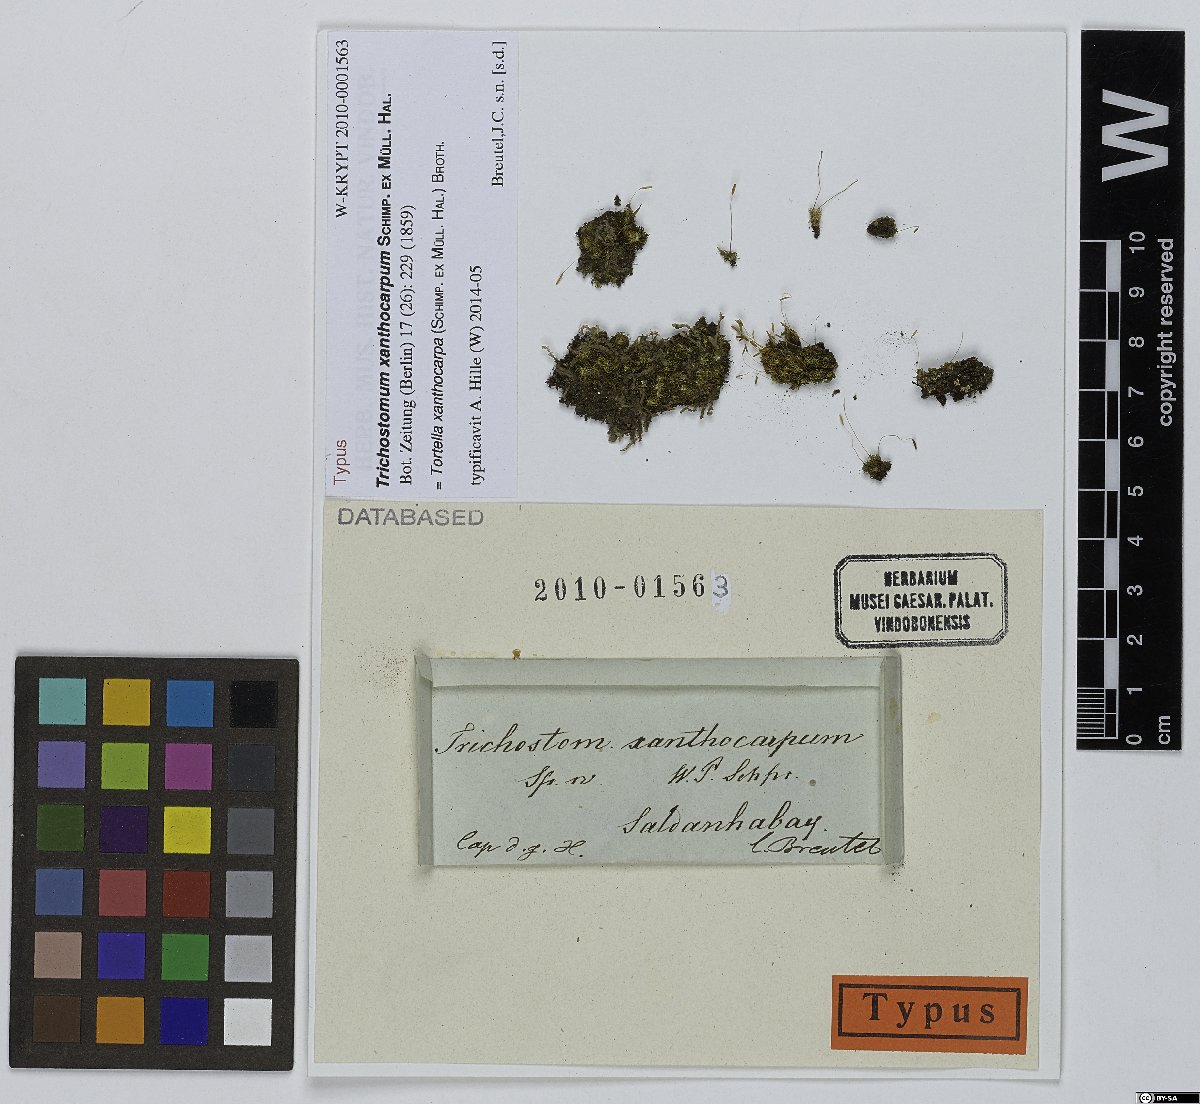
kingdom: Plantae
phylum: Bryophyta
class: Bryopsida
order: Pottiales
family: Pottiaceae
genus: Tortella
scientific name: Tortella xanthocarpa
